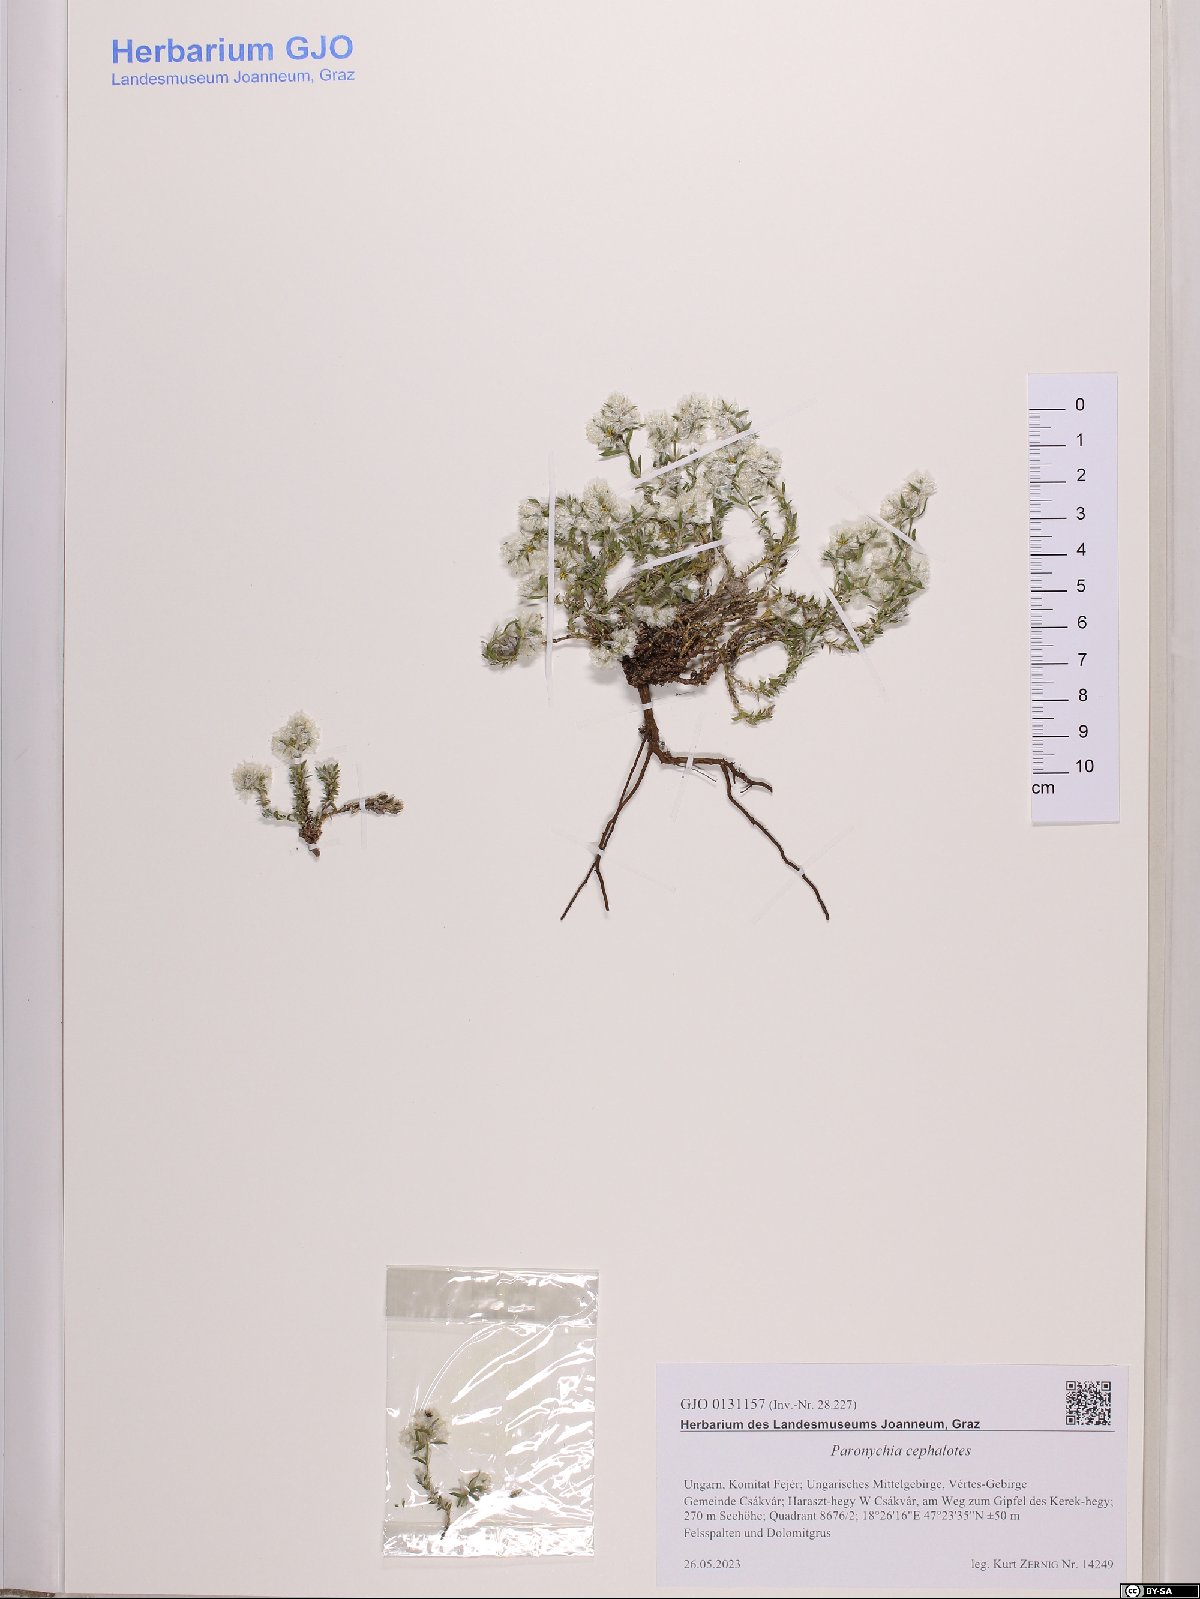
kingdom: Plantae
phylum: Tracheophyta
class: Magnoliopsida
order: Caryophyllales
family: Caryophyllaceae
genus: Paronychia
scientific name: Paronychia cephalotes
